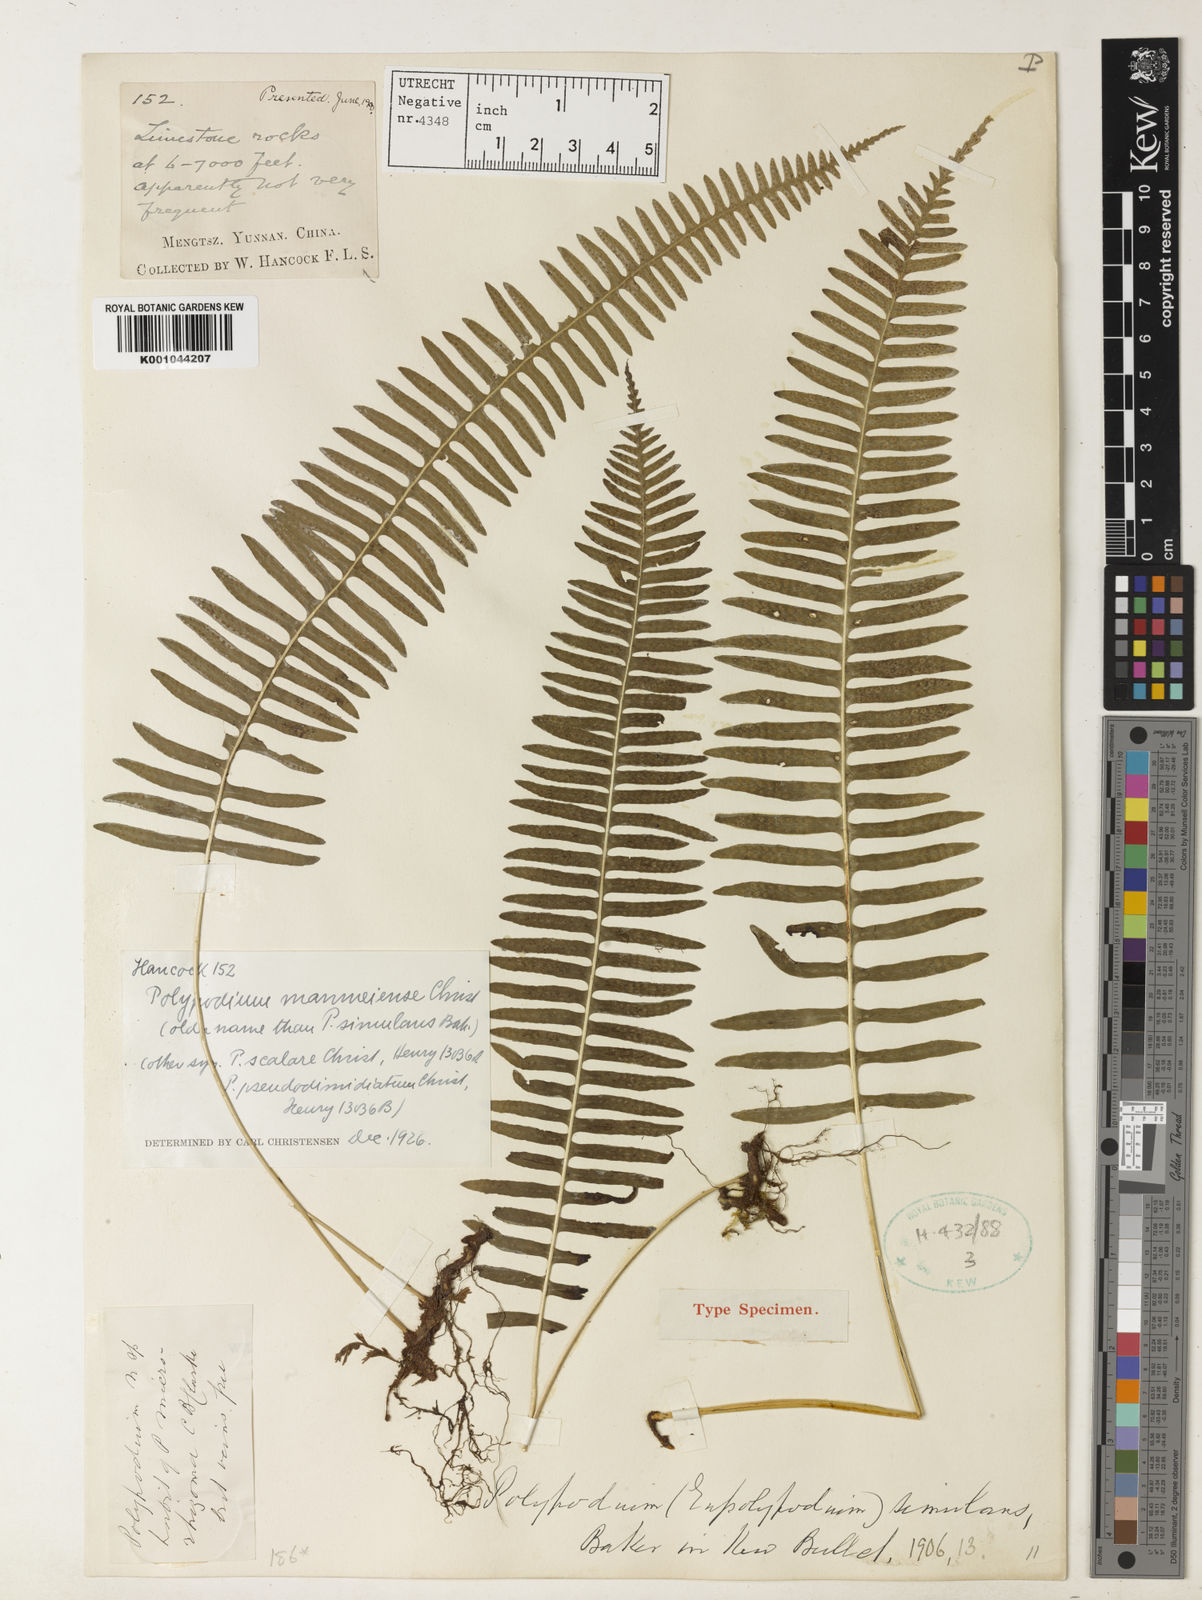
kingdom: Plantae
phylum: Tracheophyta
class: Polypodiopsida
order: Polypodiales
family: Polypodiaceae
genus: Goniophlebium
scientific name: Goniophlebium manmeiense
